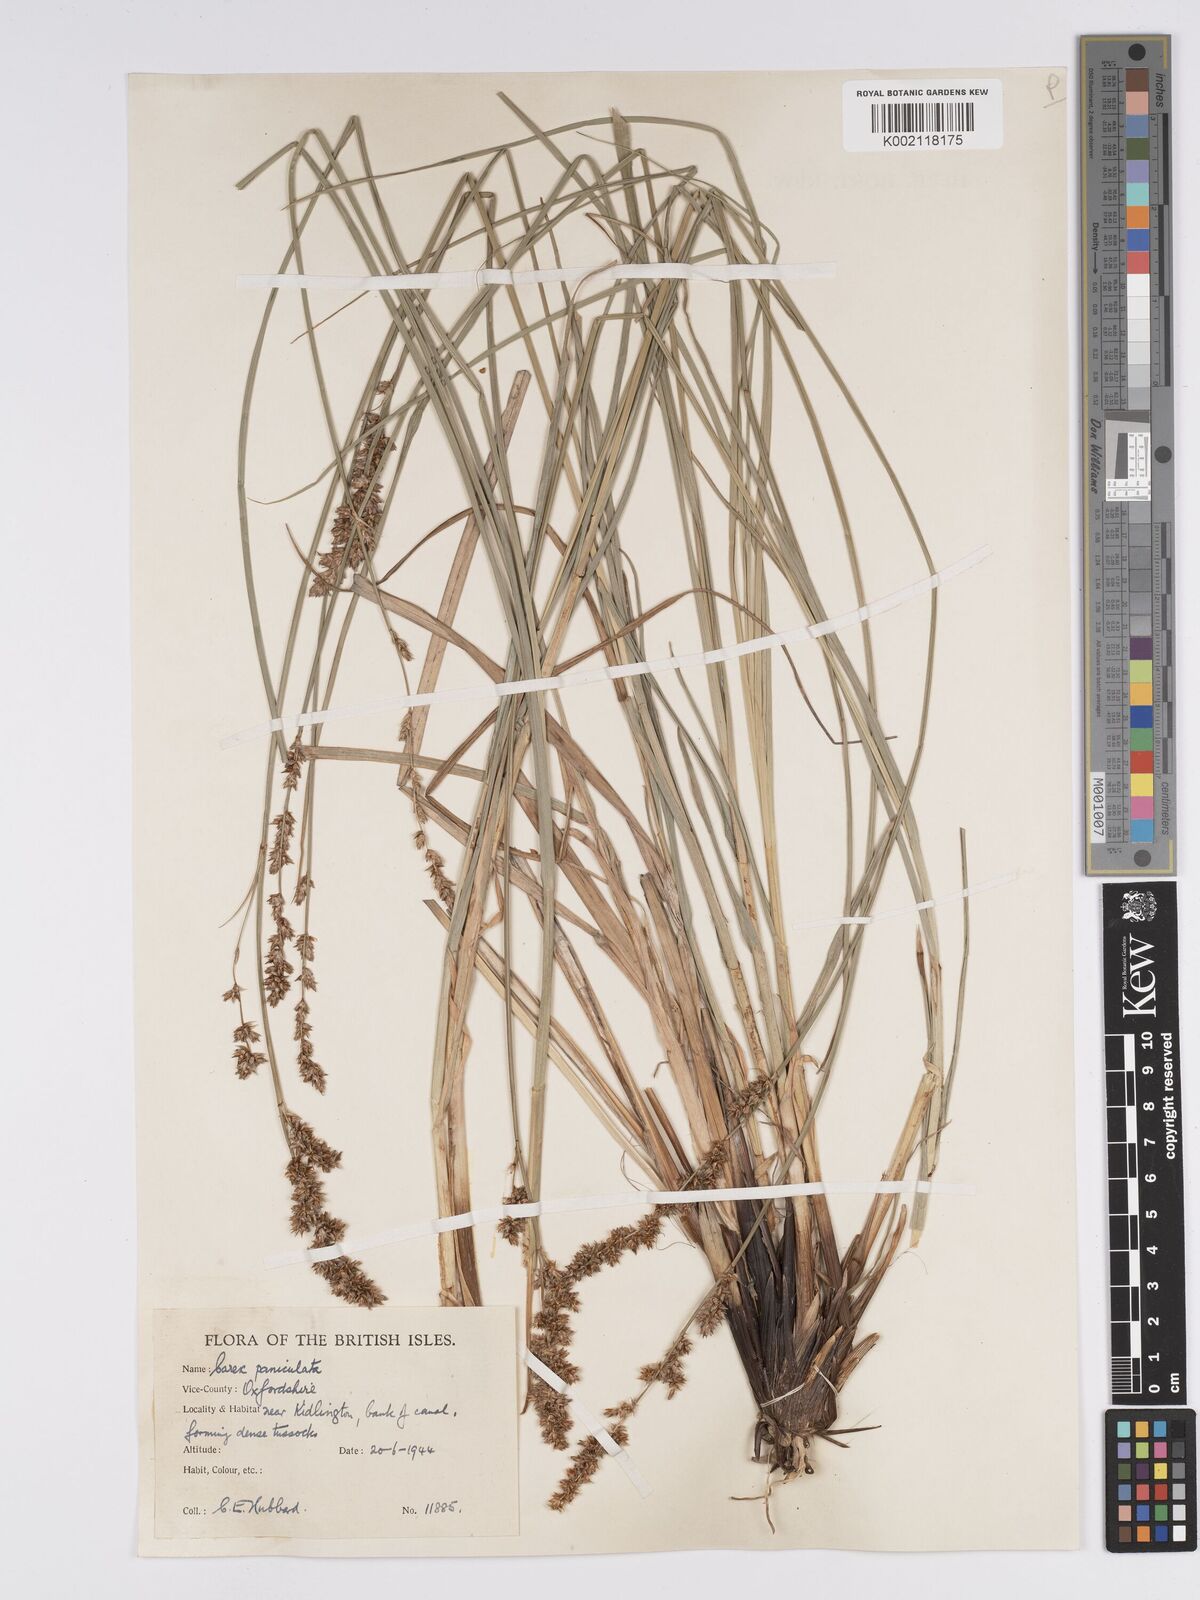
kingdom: Plantae
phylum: Tracheophyta
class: Liliopsida
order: Poales
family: Cyperaceae
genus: Carex
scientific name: Carex paniculata
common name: Greater tussock-sedge
